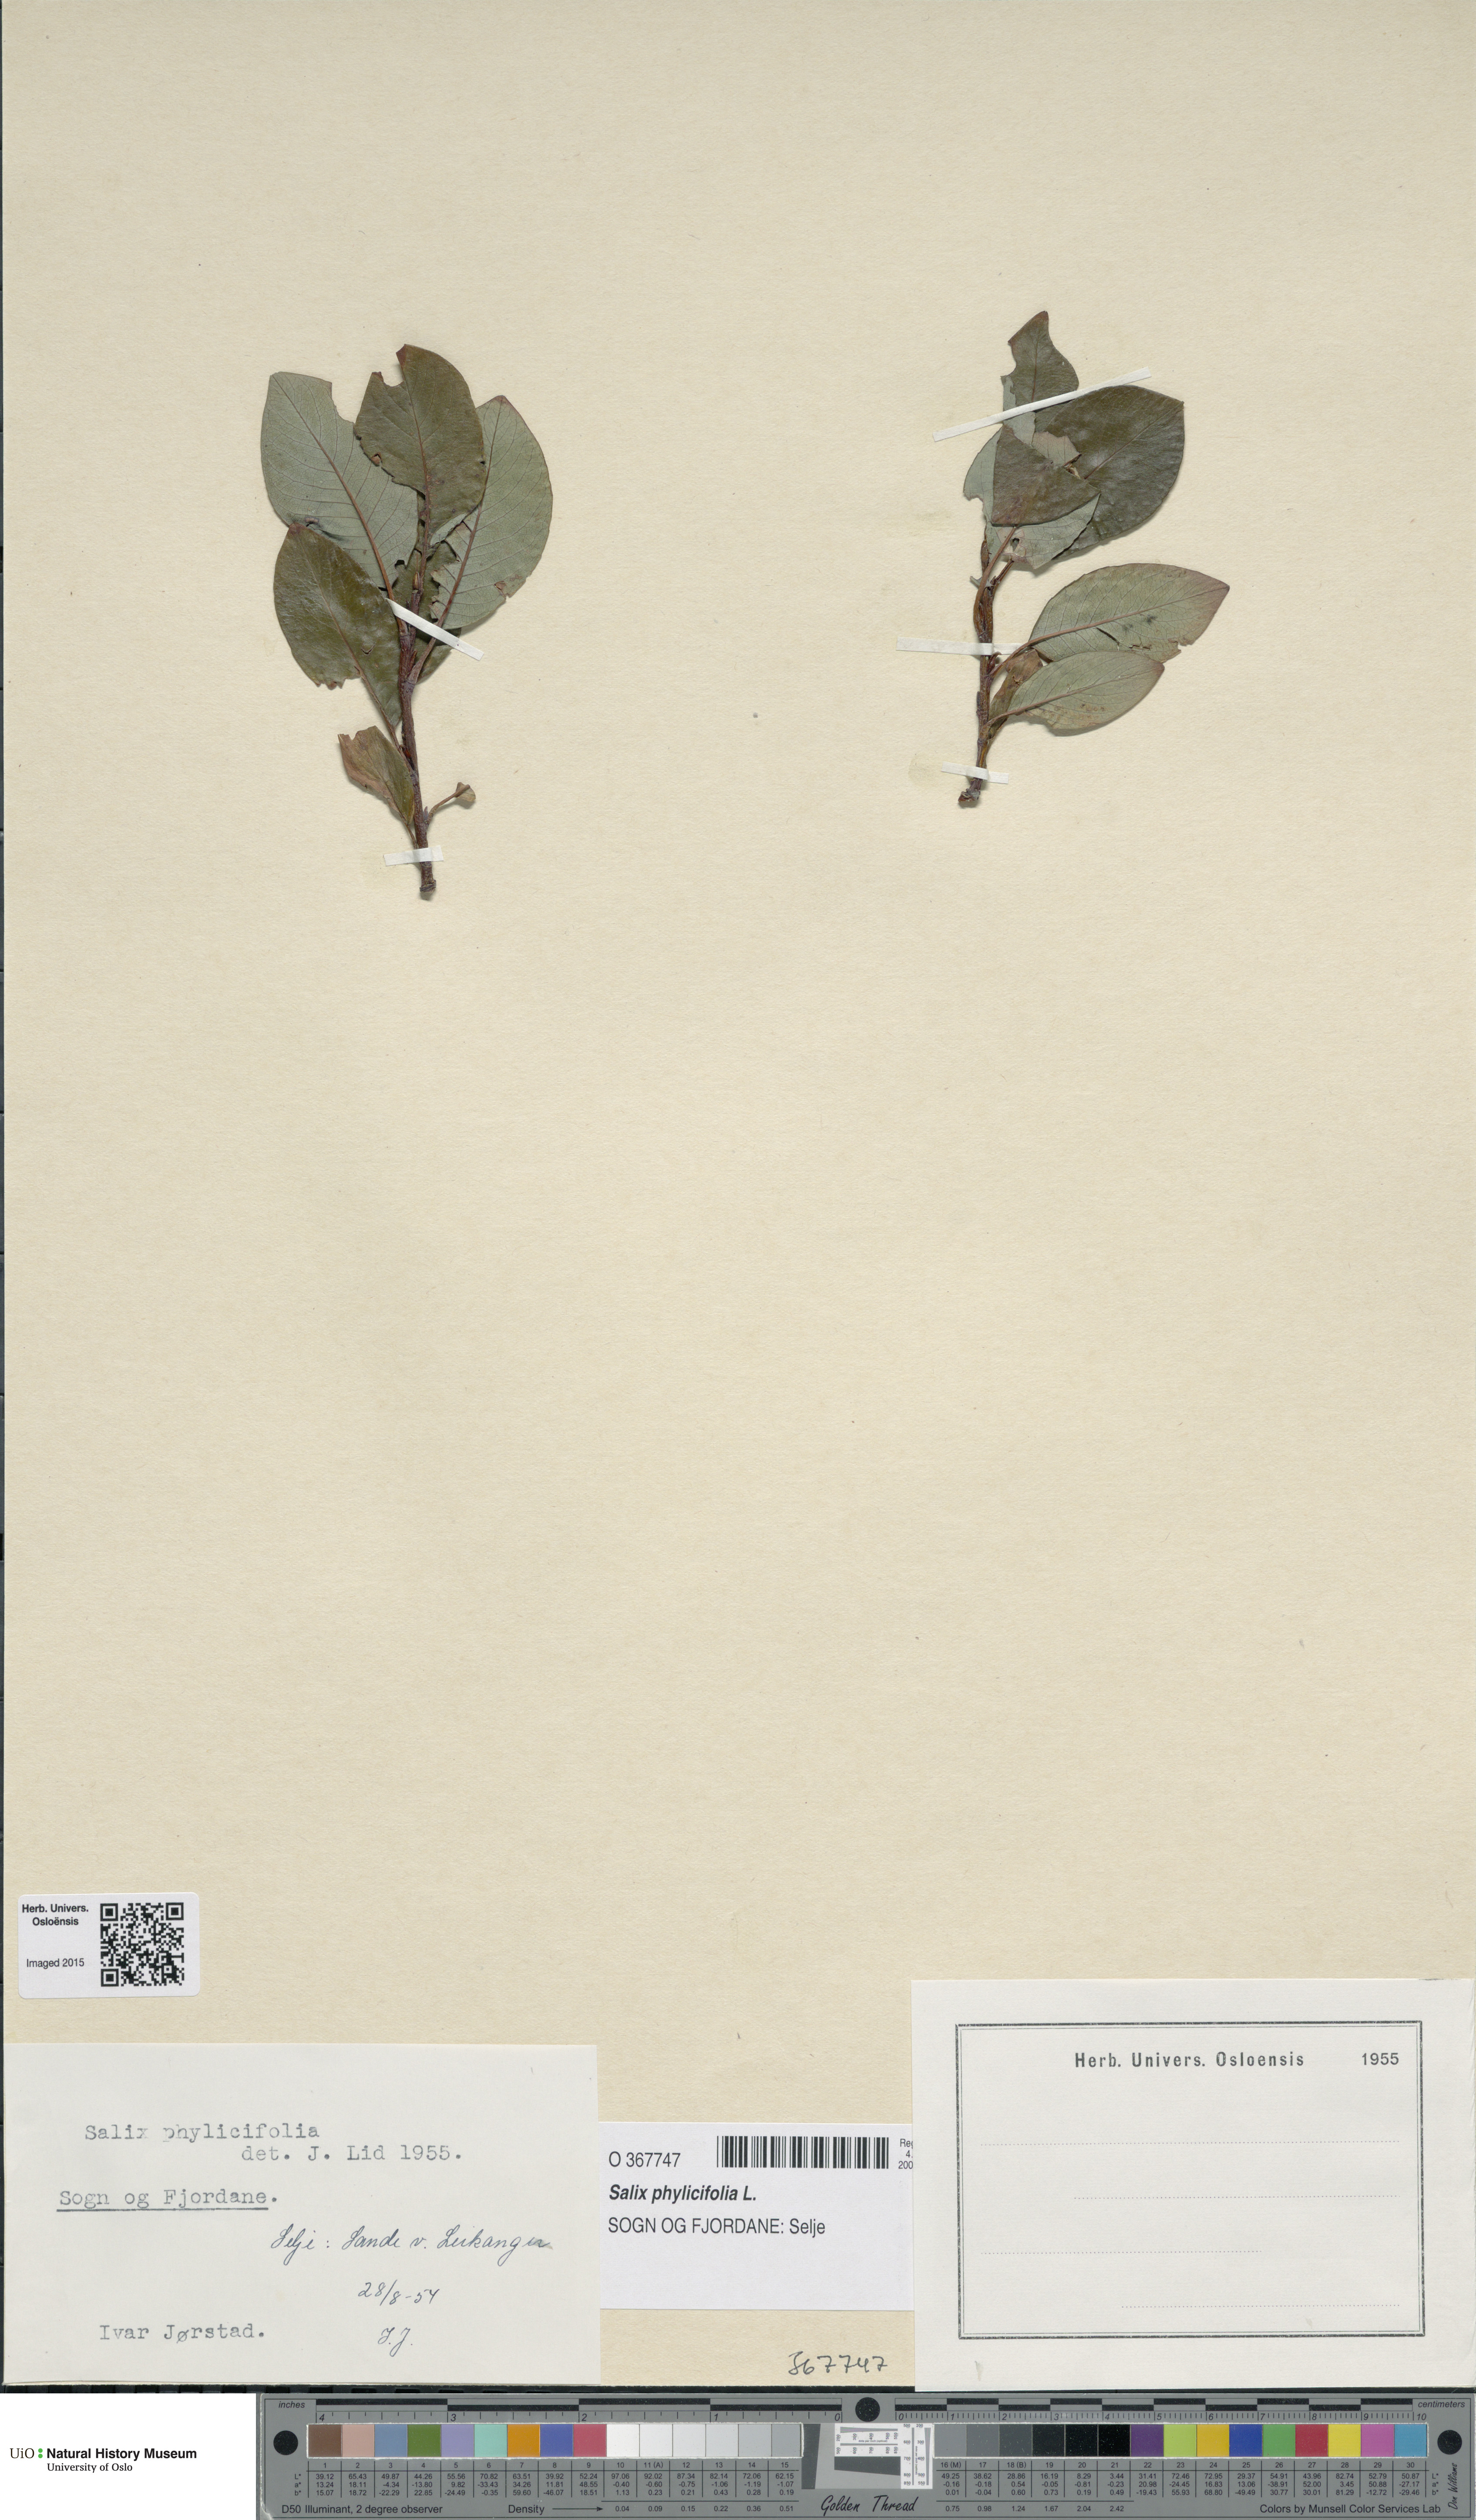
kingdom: Plantae
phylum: Tracheophyta
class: Magnoliopsida
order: Malpighiales
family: Salicaceae
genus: Salix
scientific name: Salix phylicifolia
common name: Tea-leaved willow
